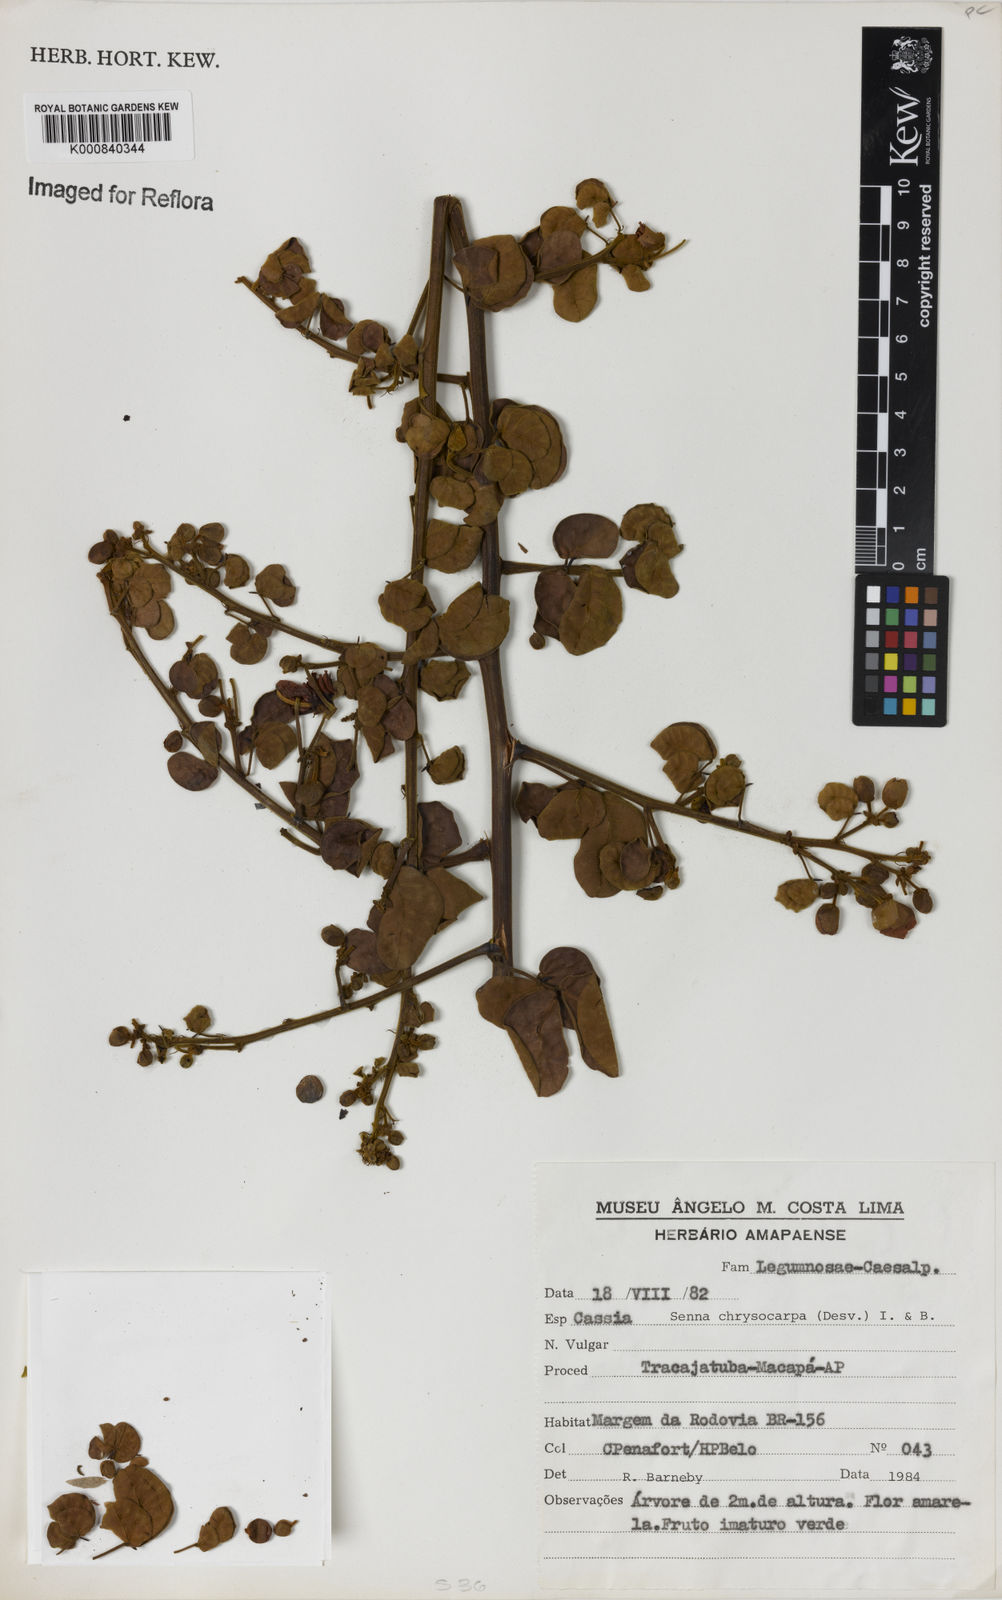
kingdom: Plantae
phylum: Tracheophyta
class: Magnoliopsida
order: Fabales
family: Fabaceae
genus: Senna
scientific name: Senna chrysocarpa
